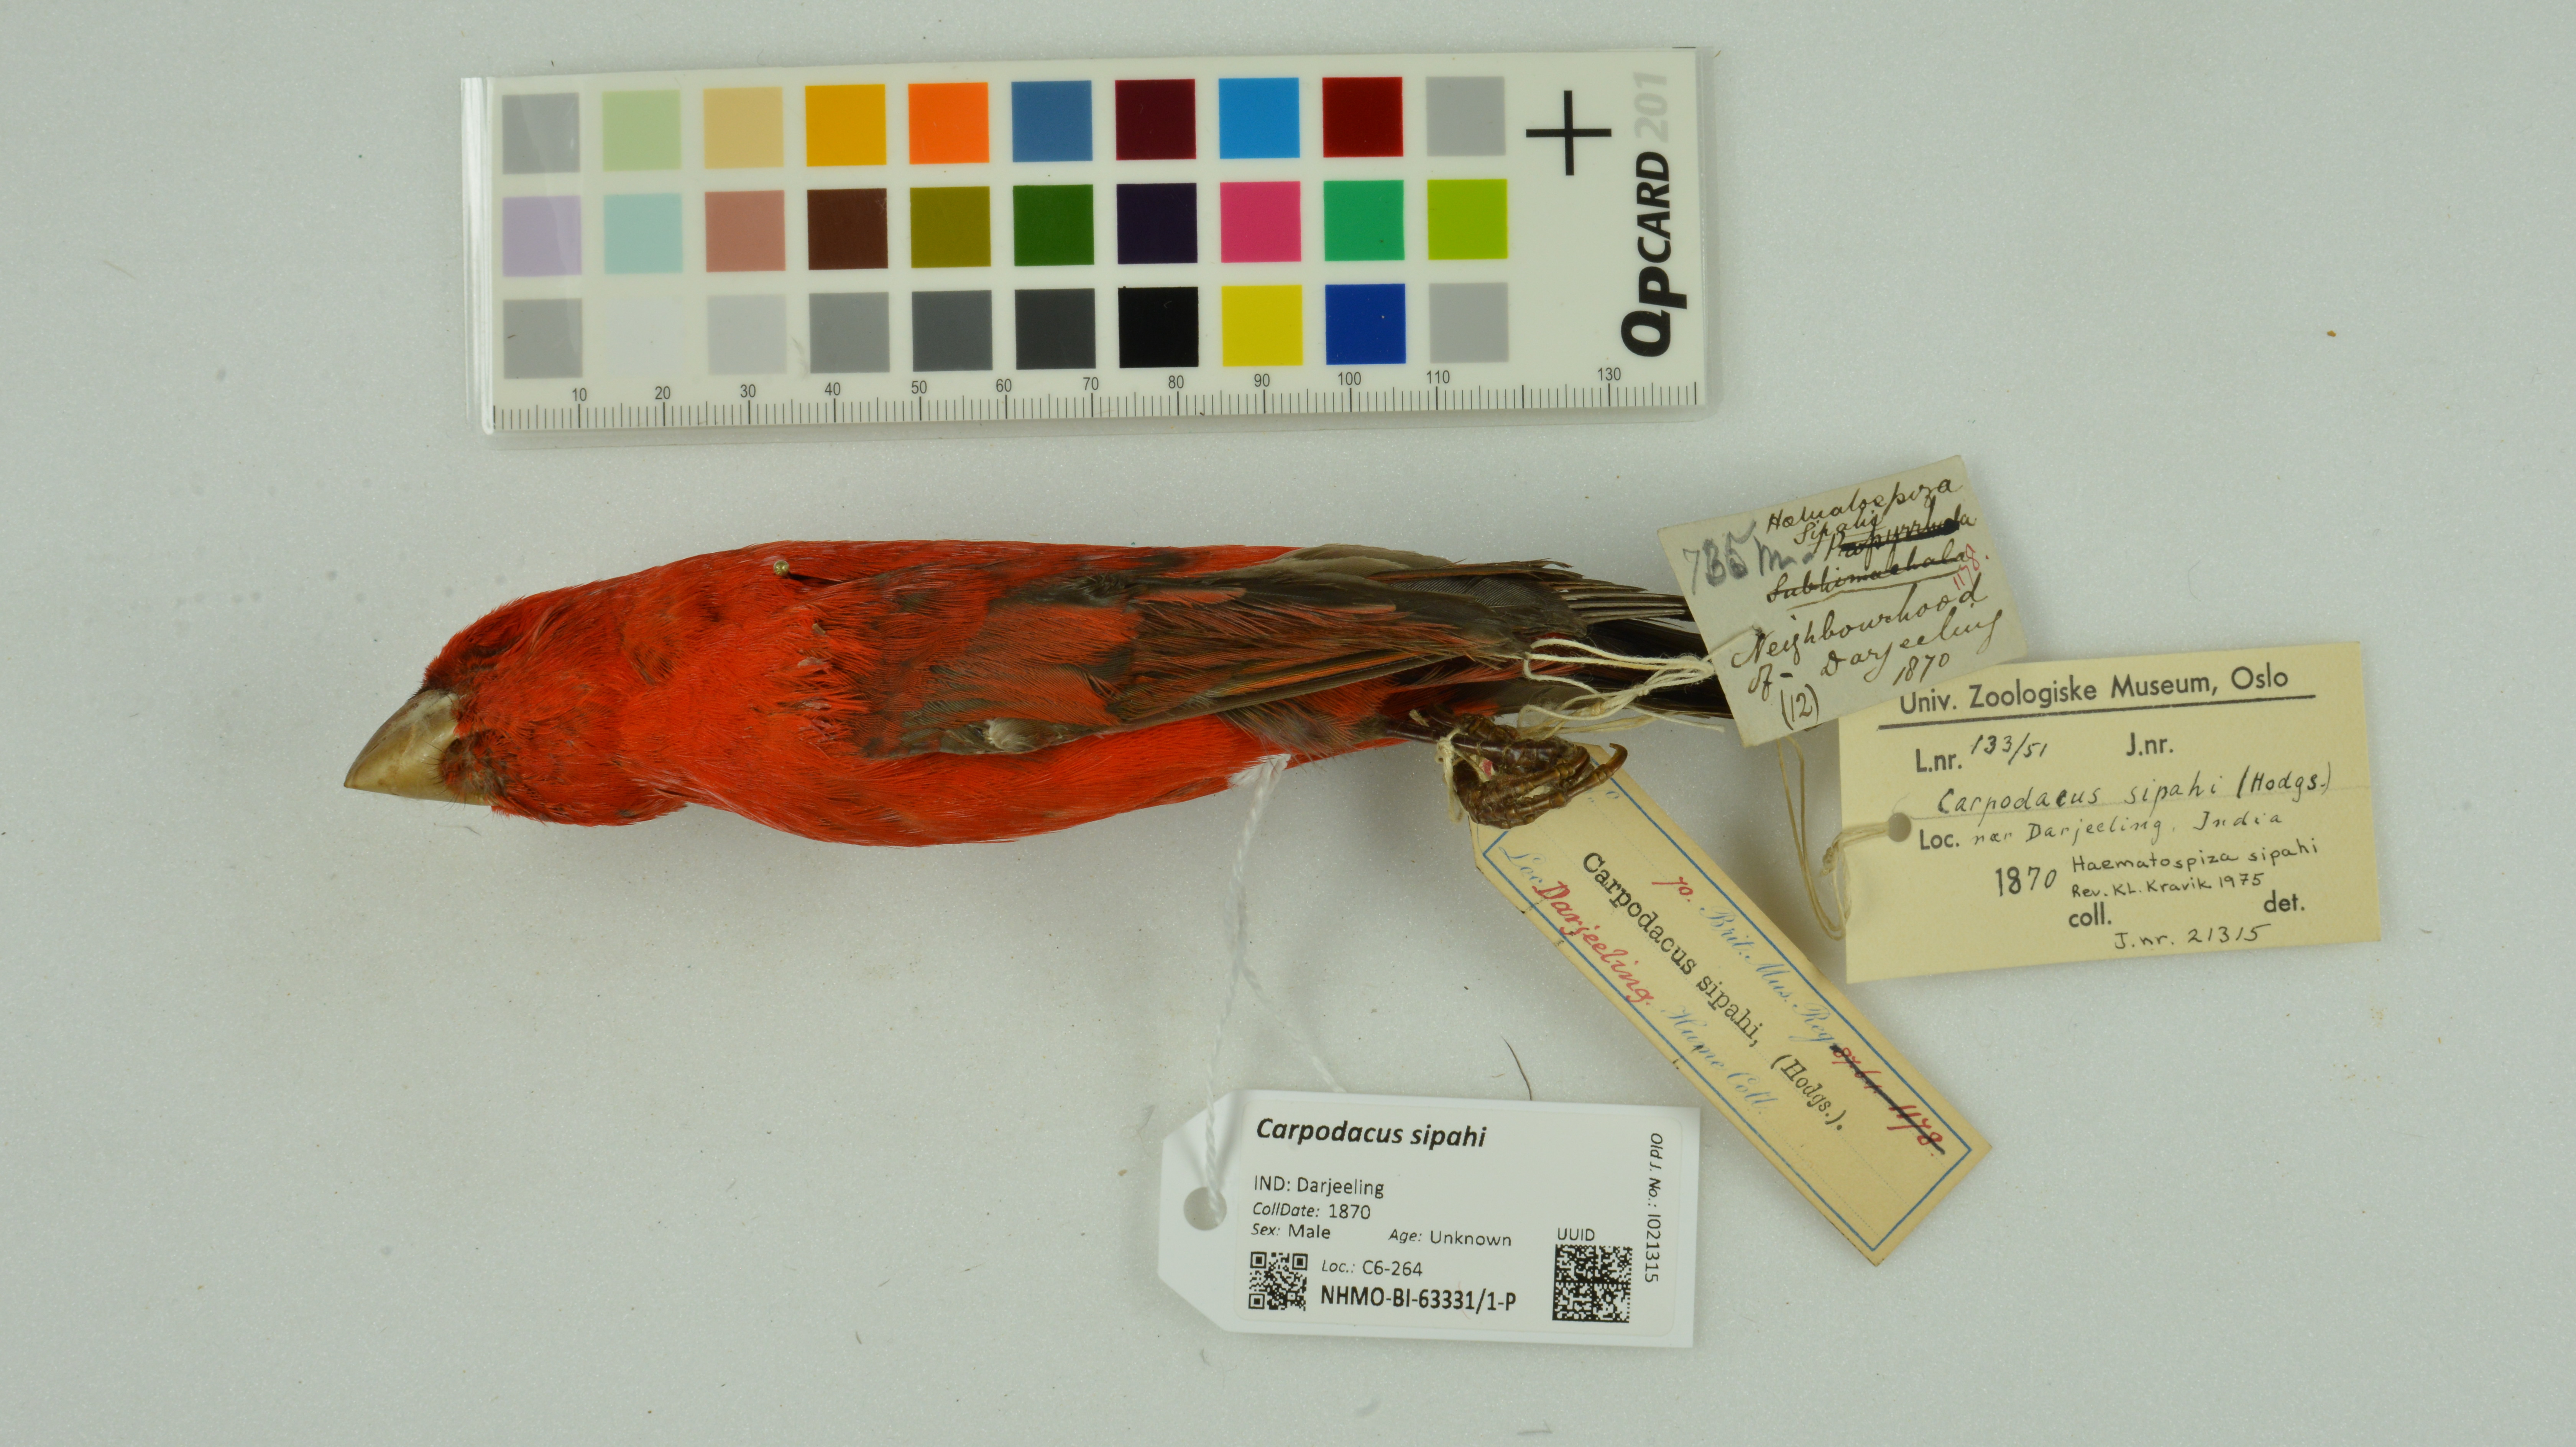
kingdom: Animalia
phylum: Chordata
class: Aves
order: Passeriformes
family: Fringillidae
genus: Carpodacus
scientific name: Carpodacus sipahi
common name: Scarlet finch
